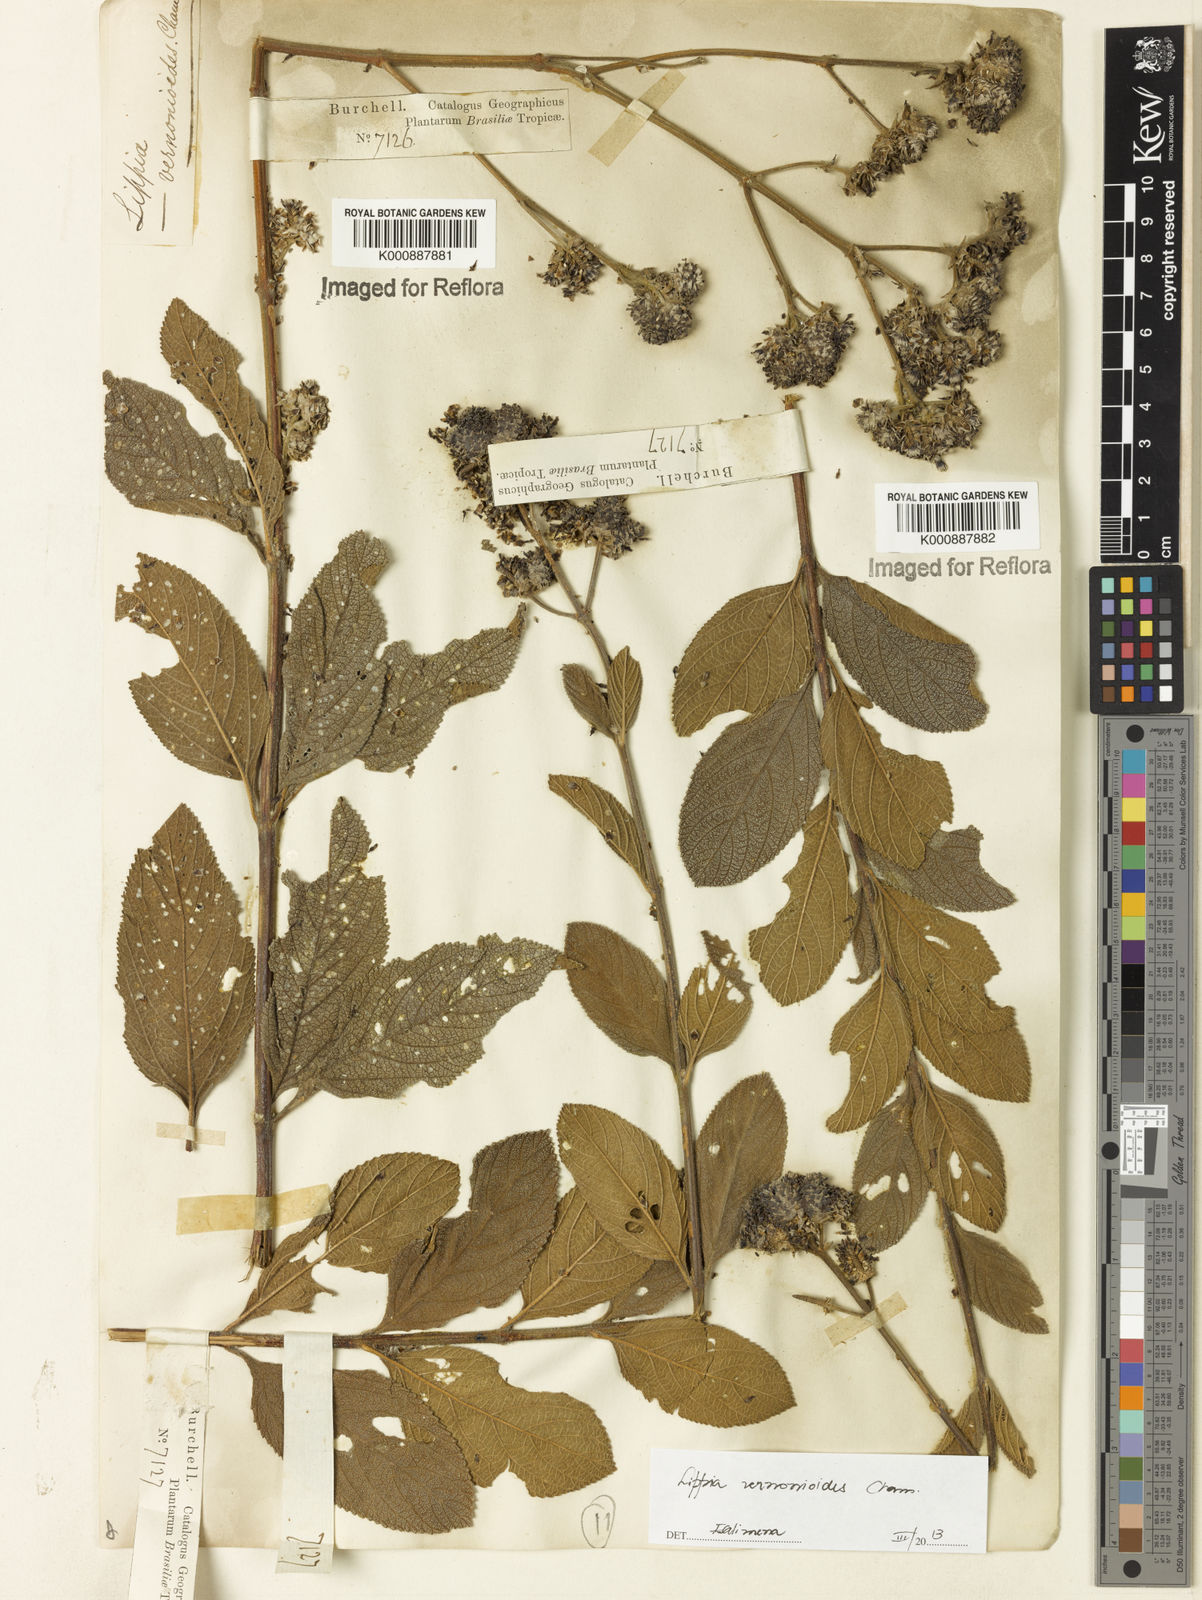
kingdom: Plantae
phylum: Tracheophyta
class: Magnoliopsida
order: Lamiales
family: Verbenaceae
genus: Lippia
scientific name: Lippia vernonioides
